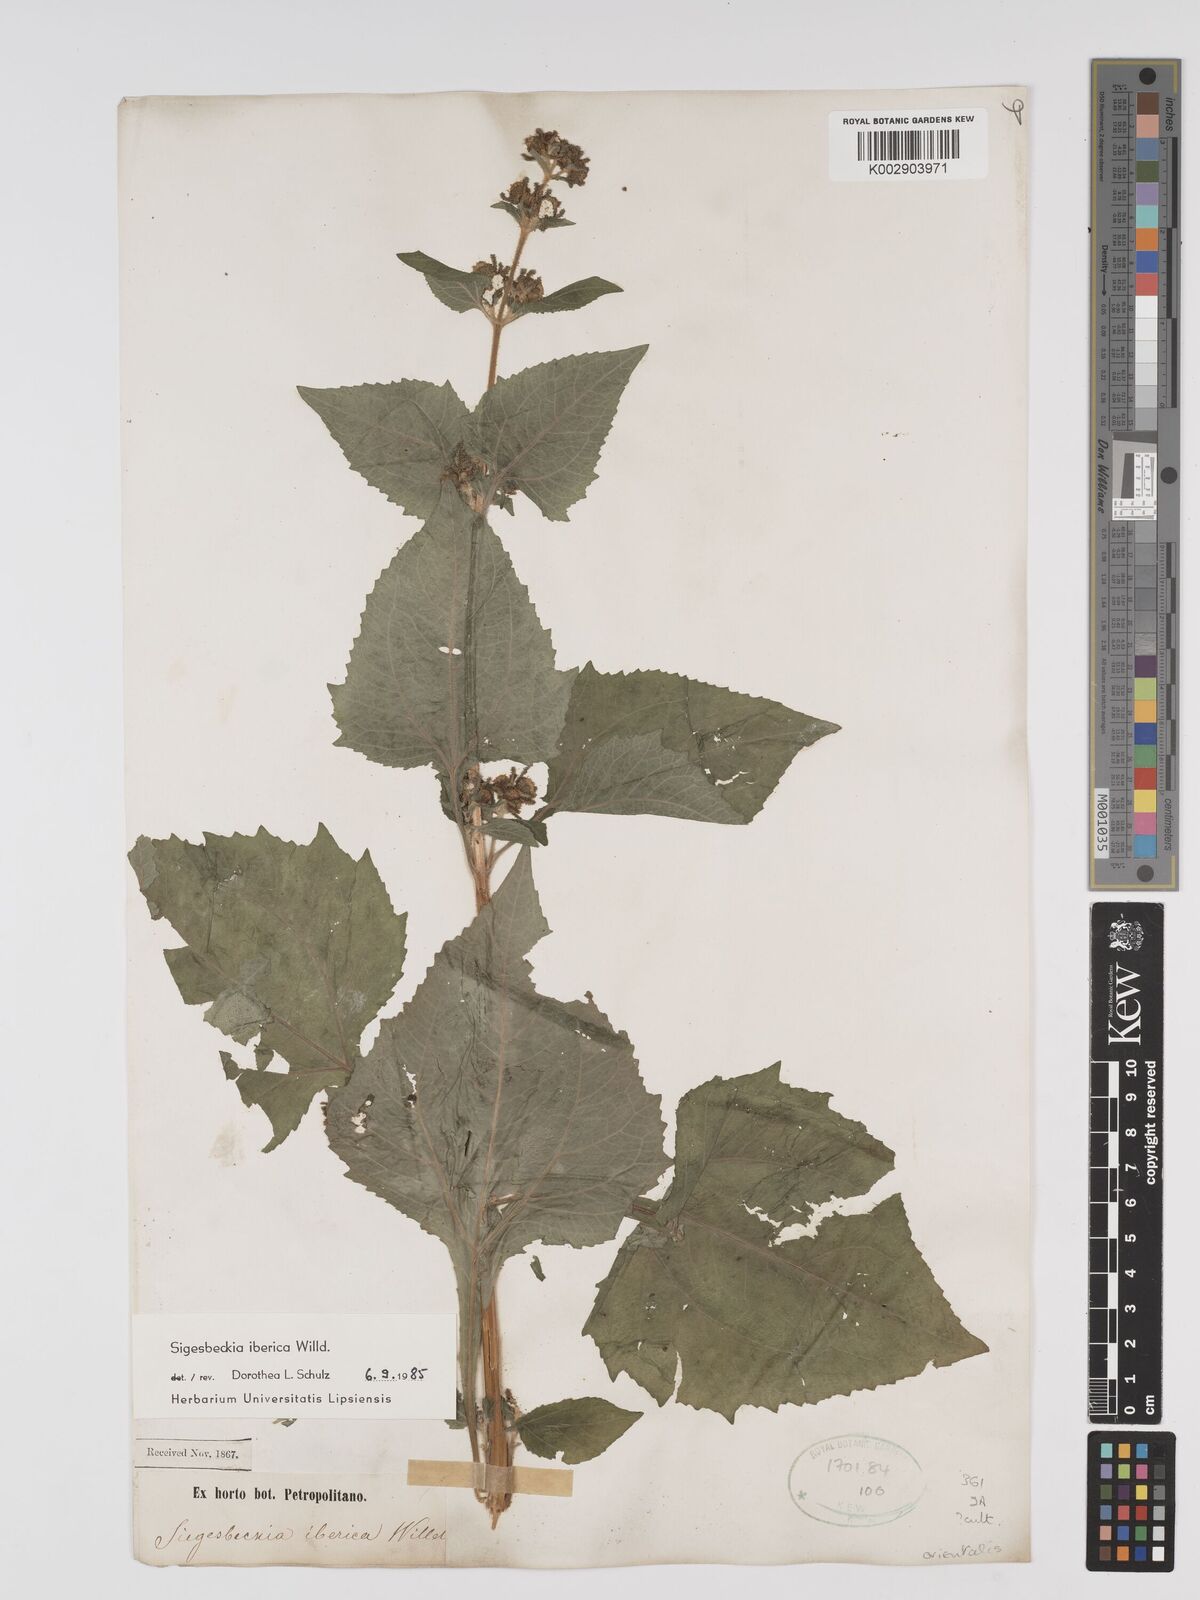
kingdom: Plantae
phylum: Tracheophyta
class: Magnoliopsida
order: Asterales
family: Asteraceae
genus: Sigesbeckia
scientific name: Sigesbeckia orientalis
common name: Eastern st paul's-wort
